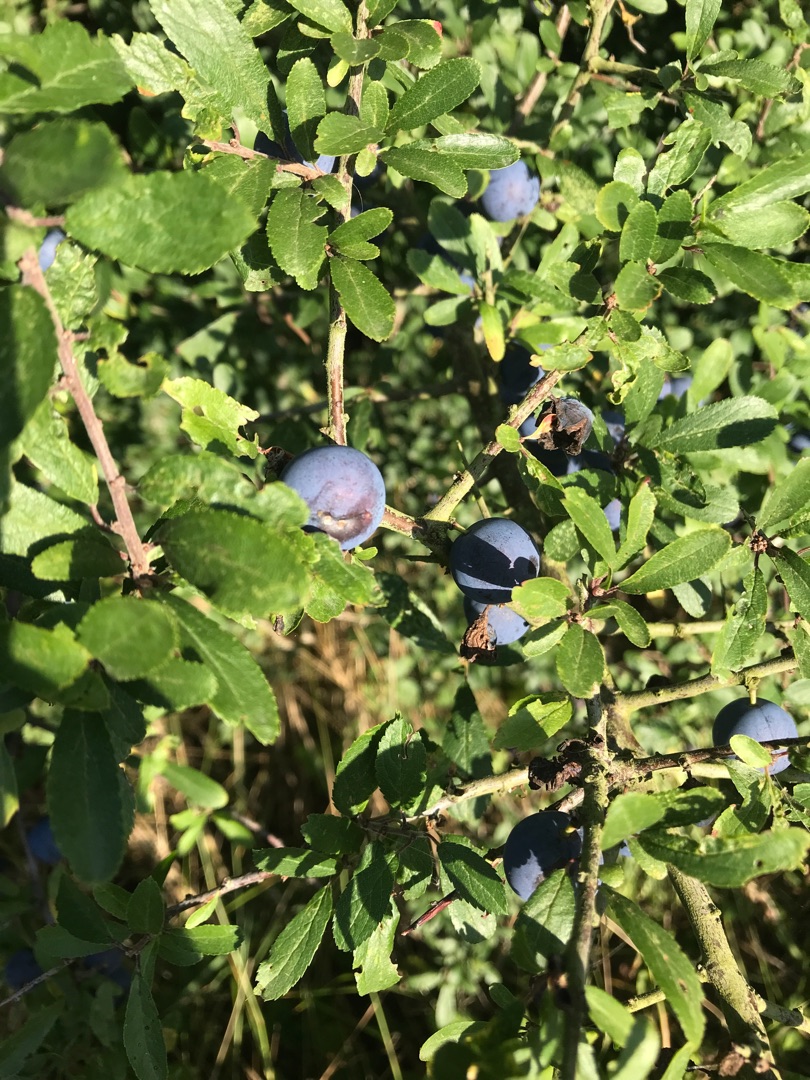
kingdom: Plantae
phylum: Tracheophyta
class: Magnoliopsida
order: Rosales
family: Rosaceae
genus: Prunus
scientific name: Prunus spinosa
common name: Slåen
